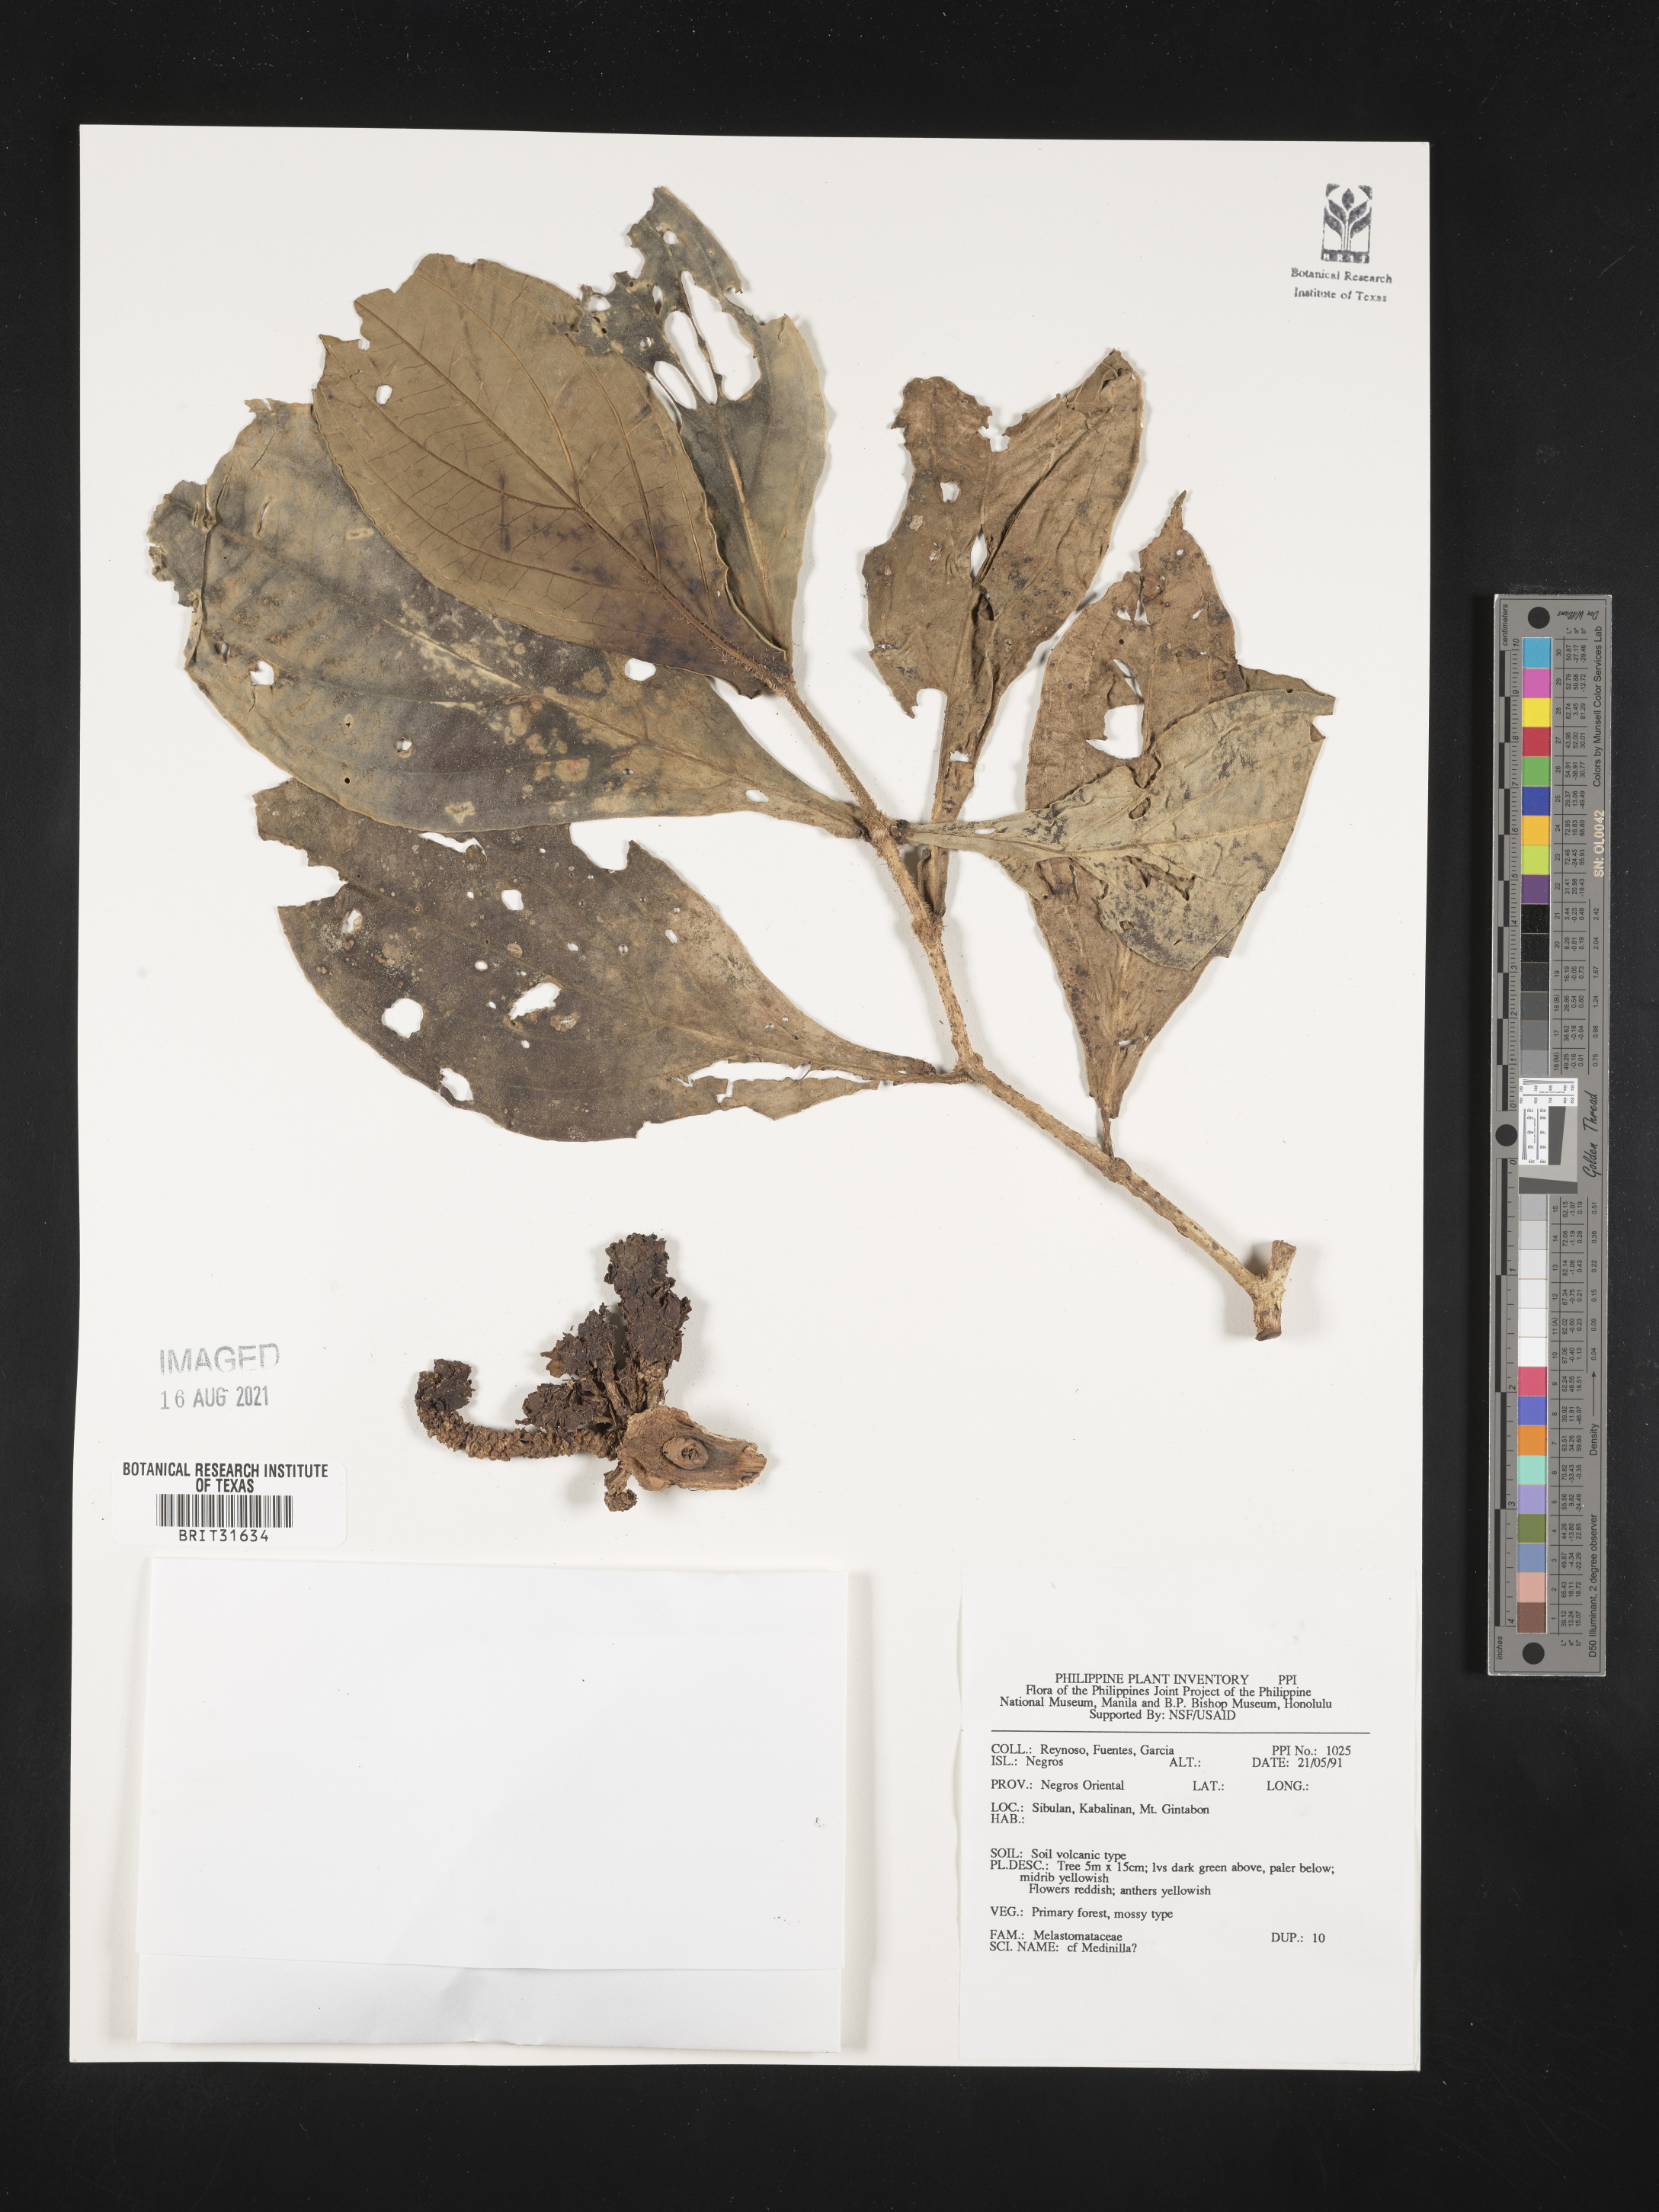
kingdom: Plantae
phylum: Tracheophyta
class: Magnoliopsida
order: Myrtales
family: Melastomataceae
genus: Medinilla
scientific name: Medinilla
